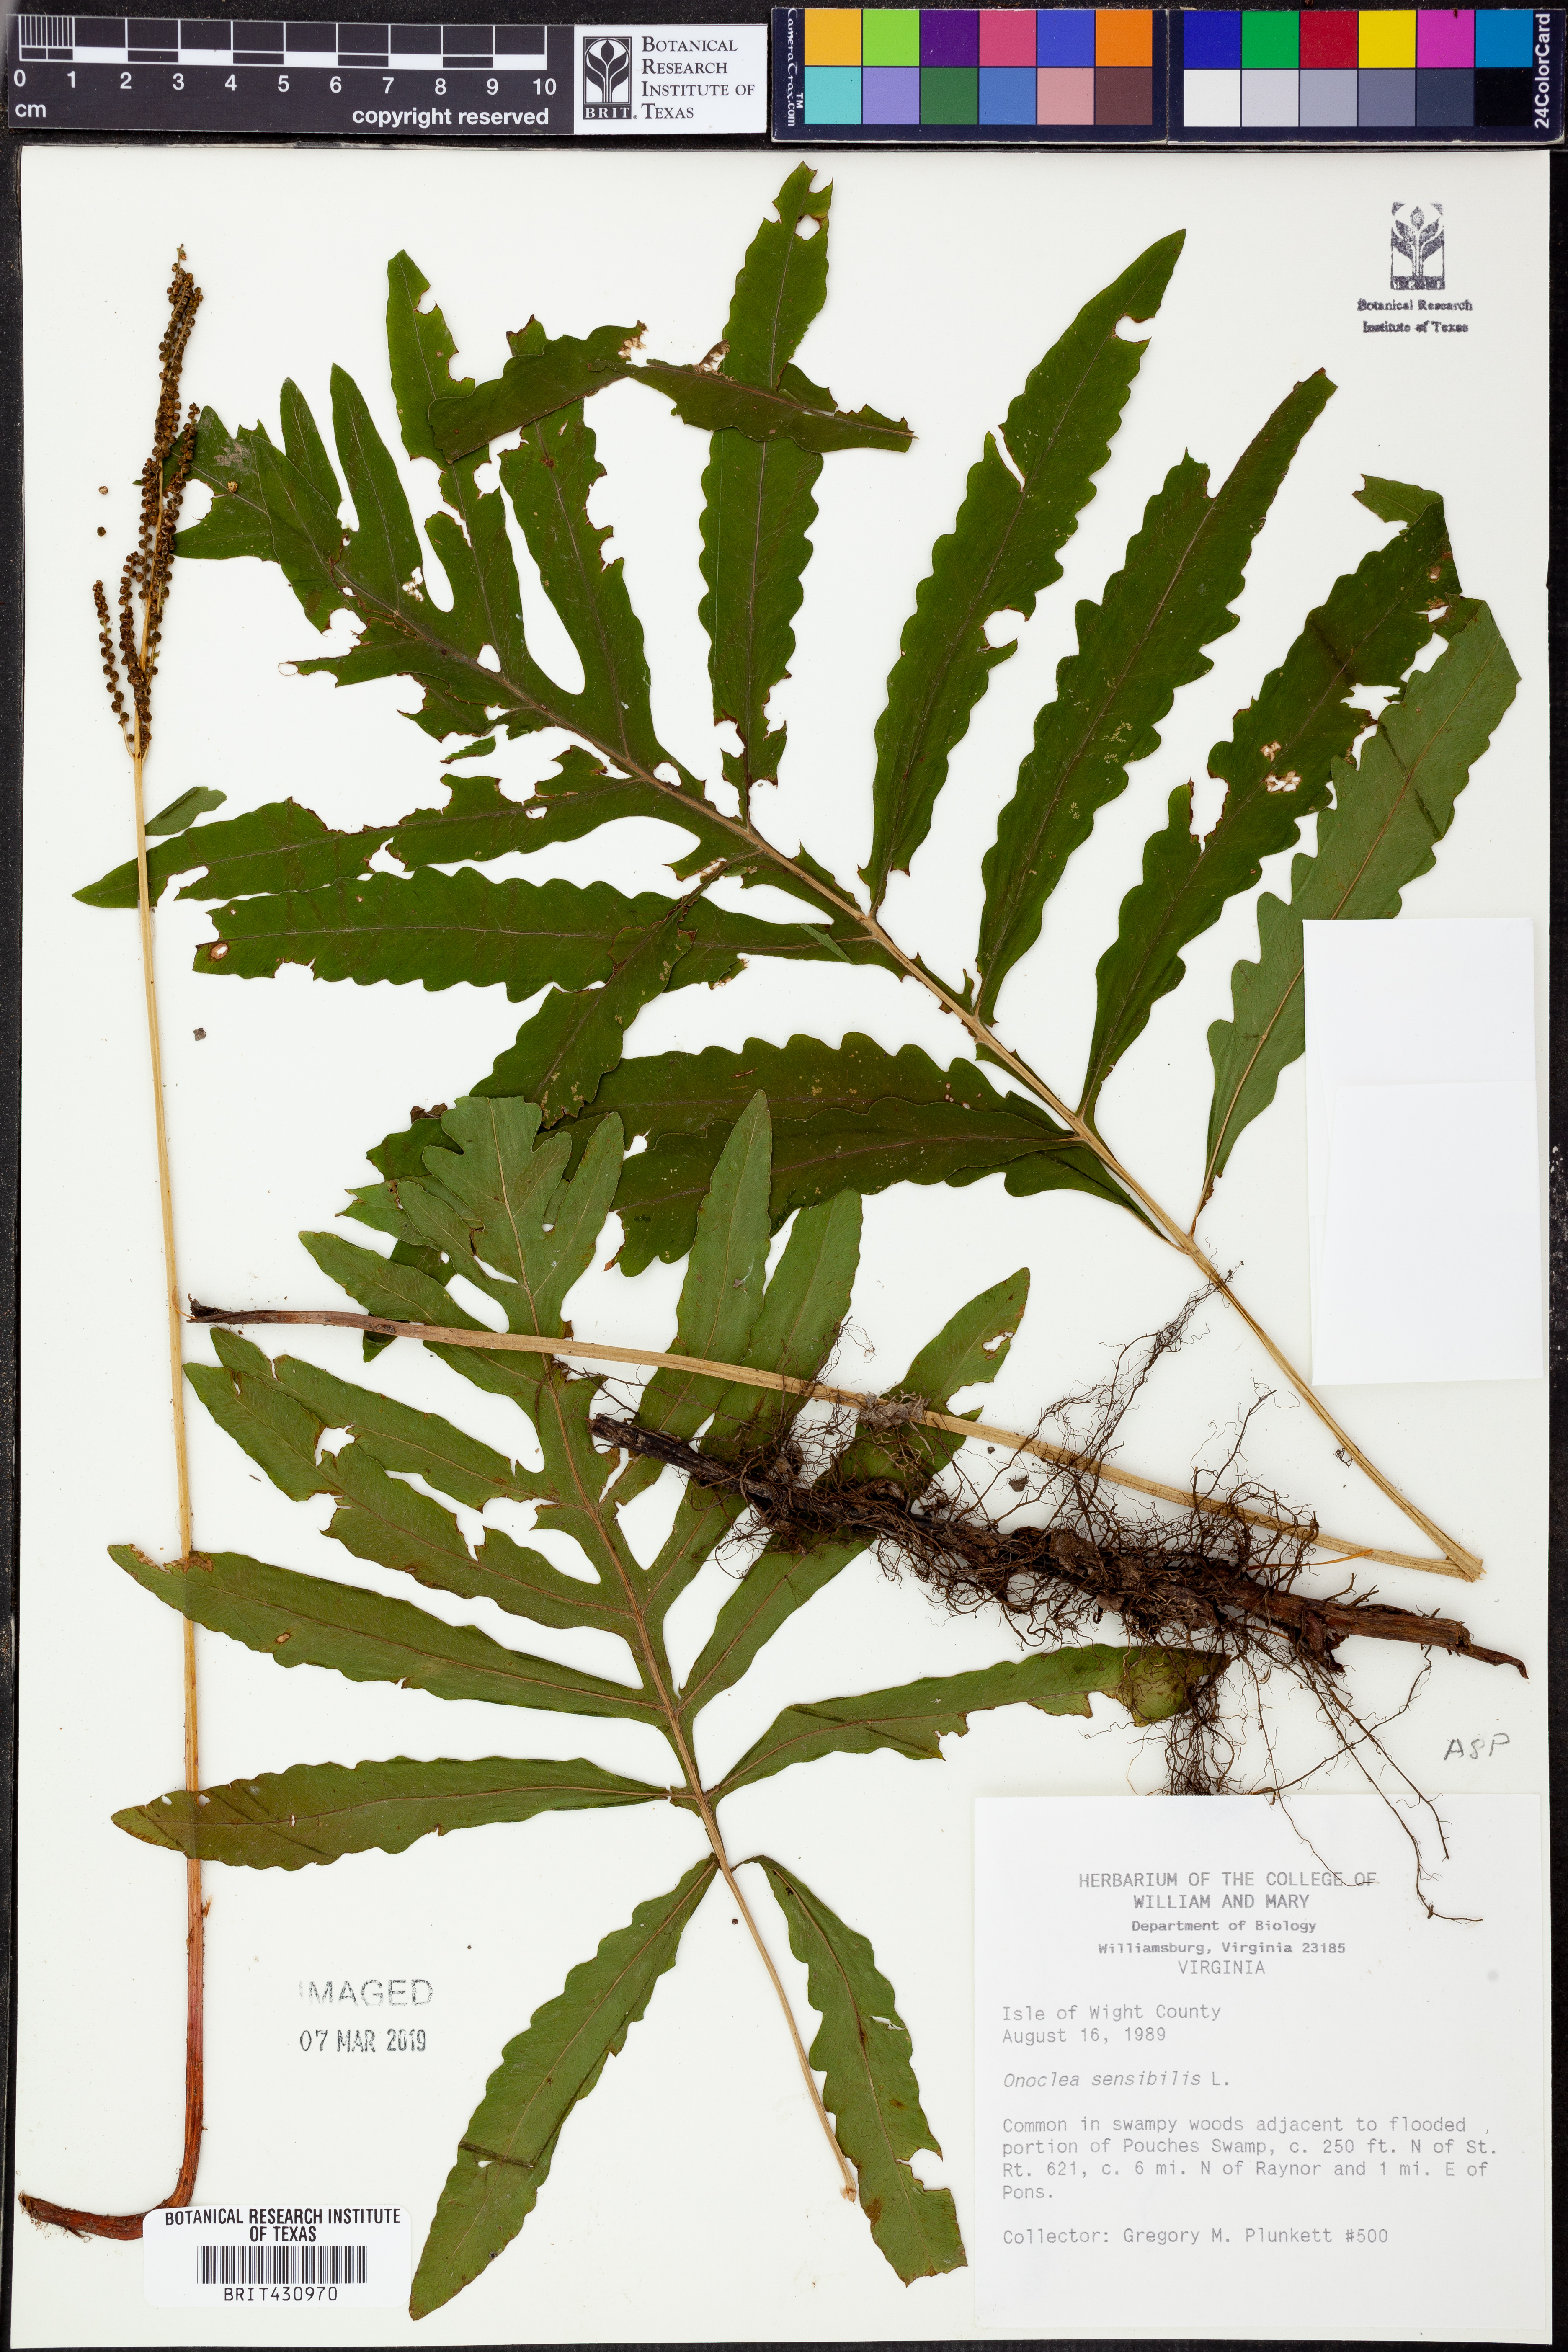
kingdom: Plantae
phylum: Tracheophyta
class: Polypodiopsida
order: Polypodiales
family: Onocleaceae
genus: Onoclea
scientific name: Onoclea sensibilis
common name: Sensitive fern
